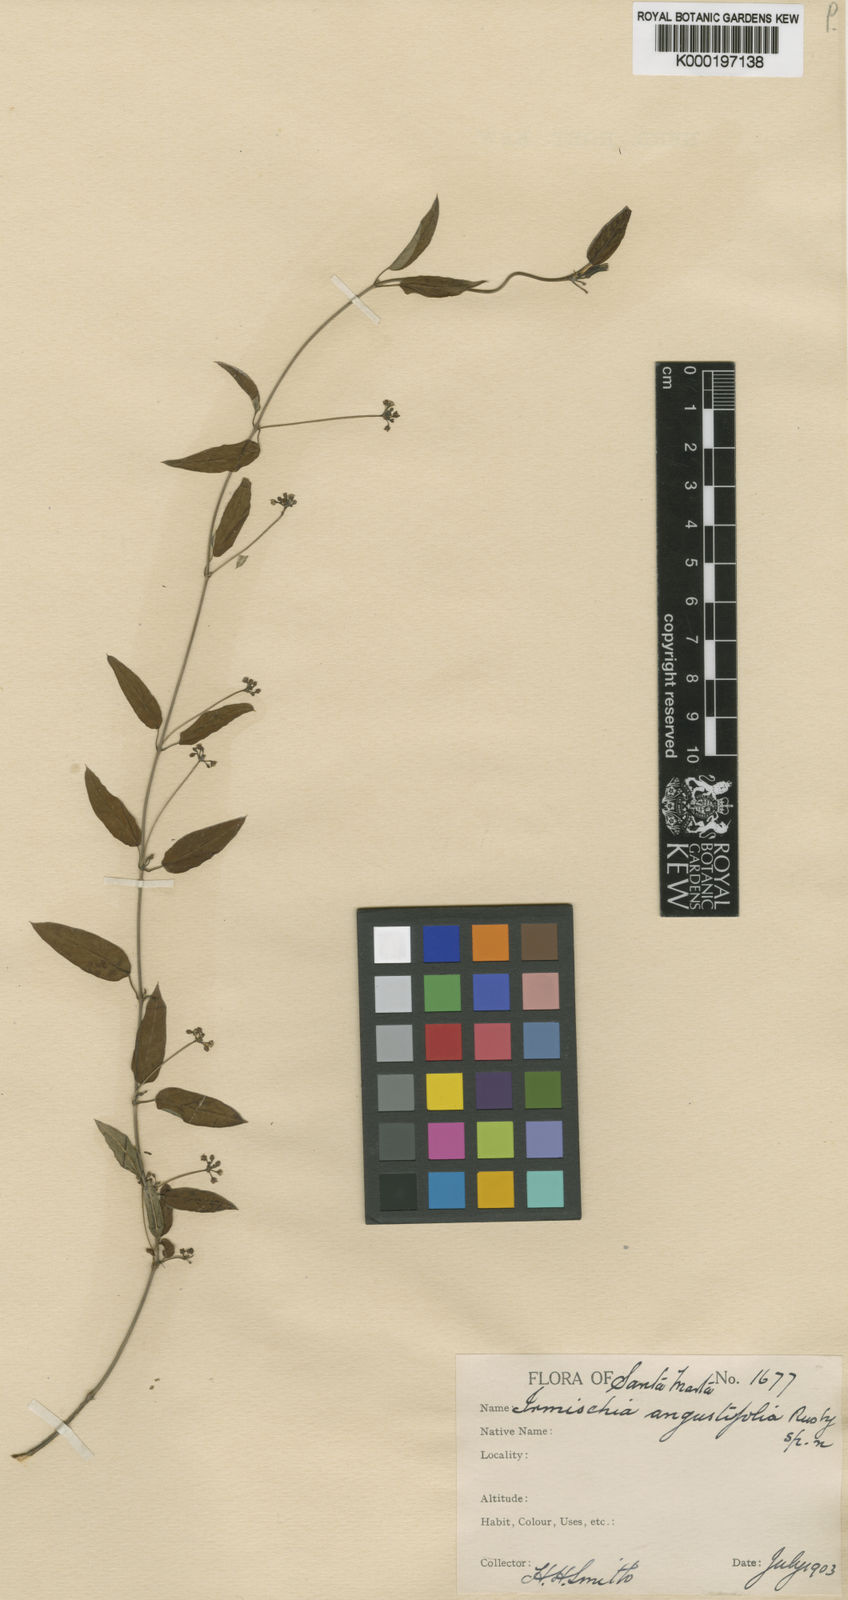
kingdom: Plantae
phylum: Tracheophyta
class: Magnoliopsida
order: Gentianales
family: Apocynaceae
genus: Metastelma
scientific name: Metastelma mexicanum
